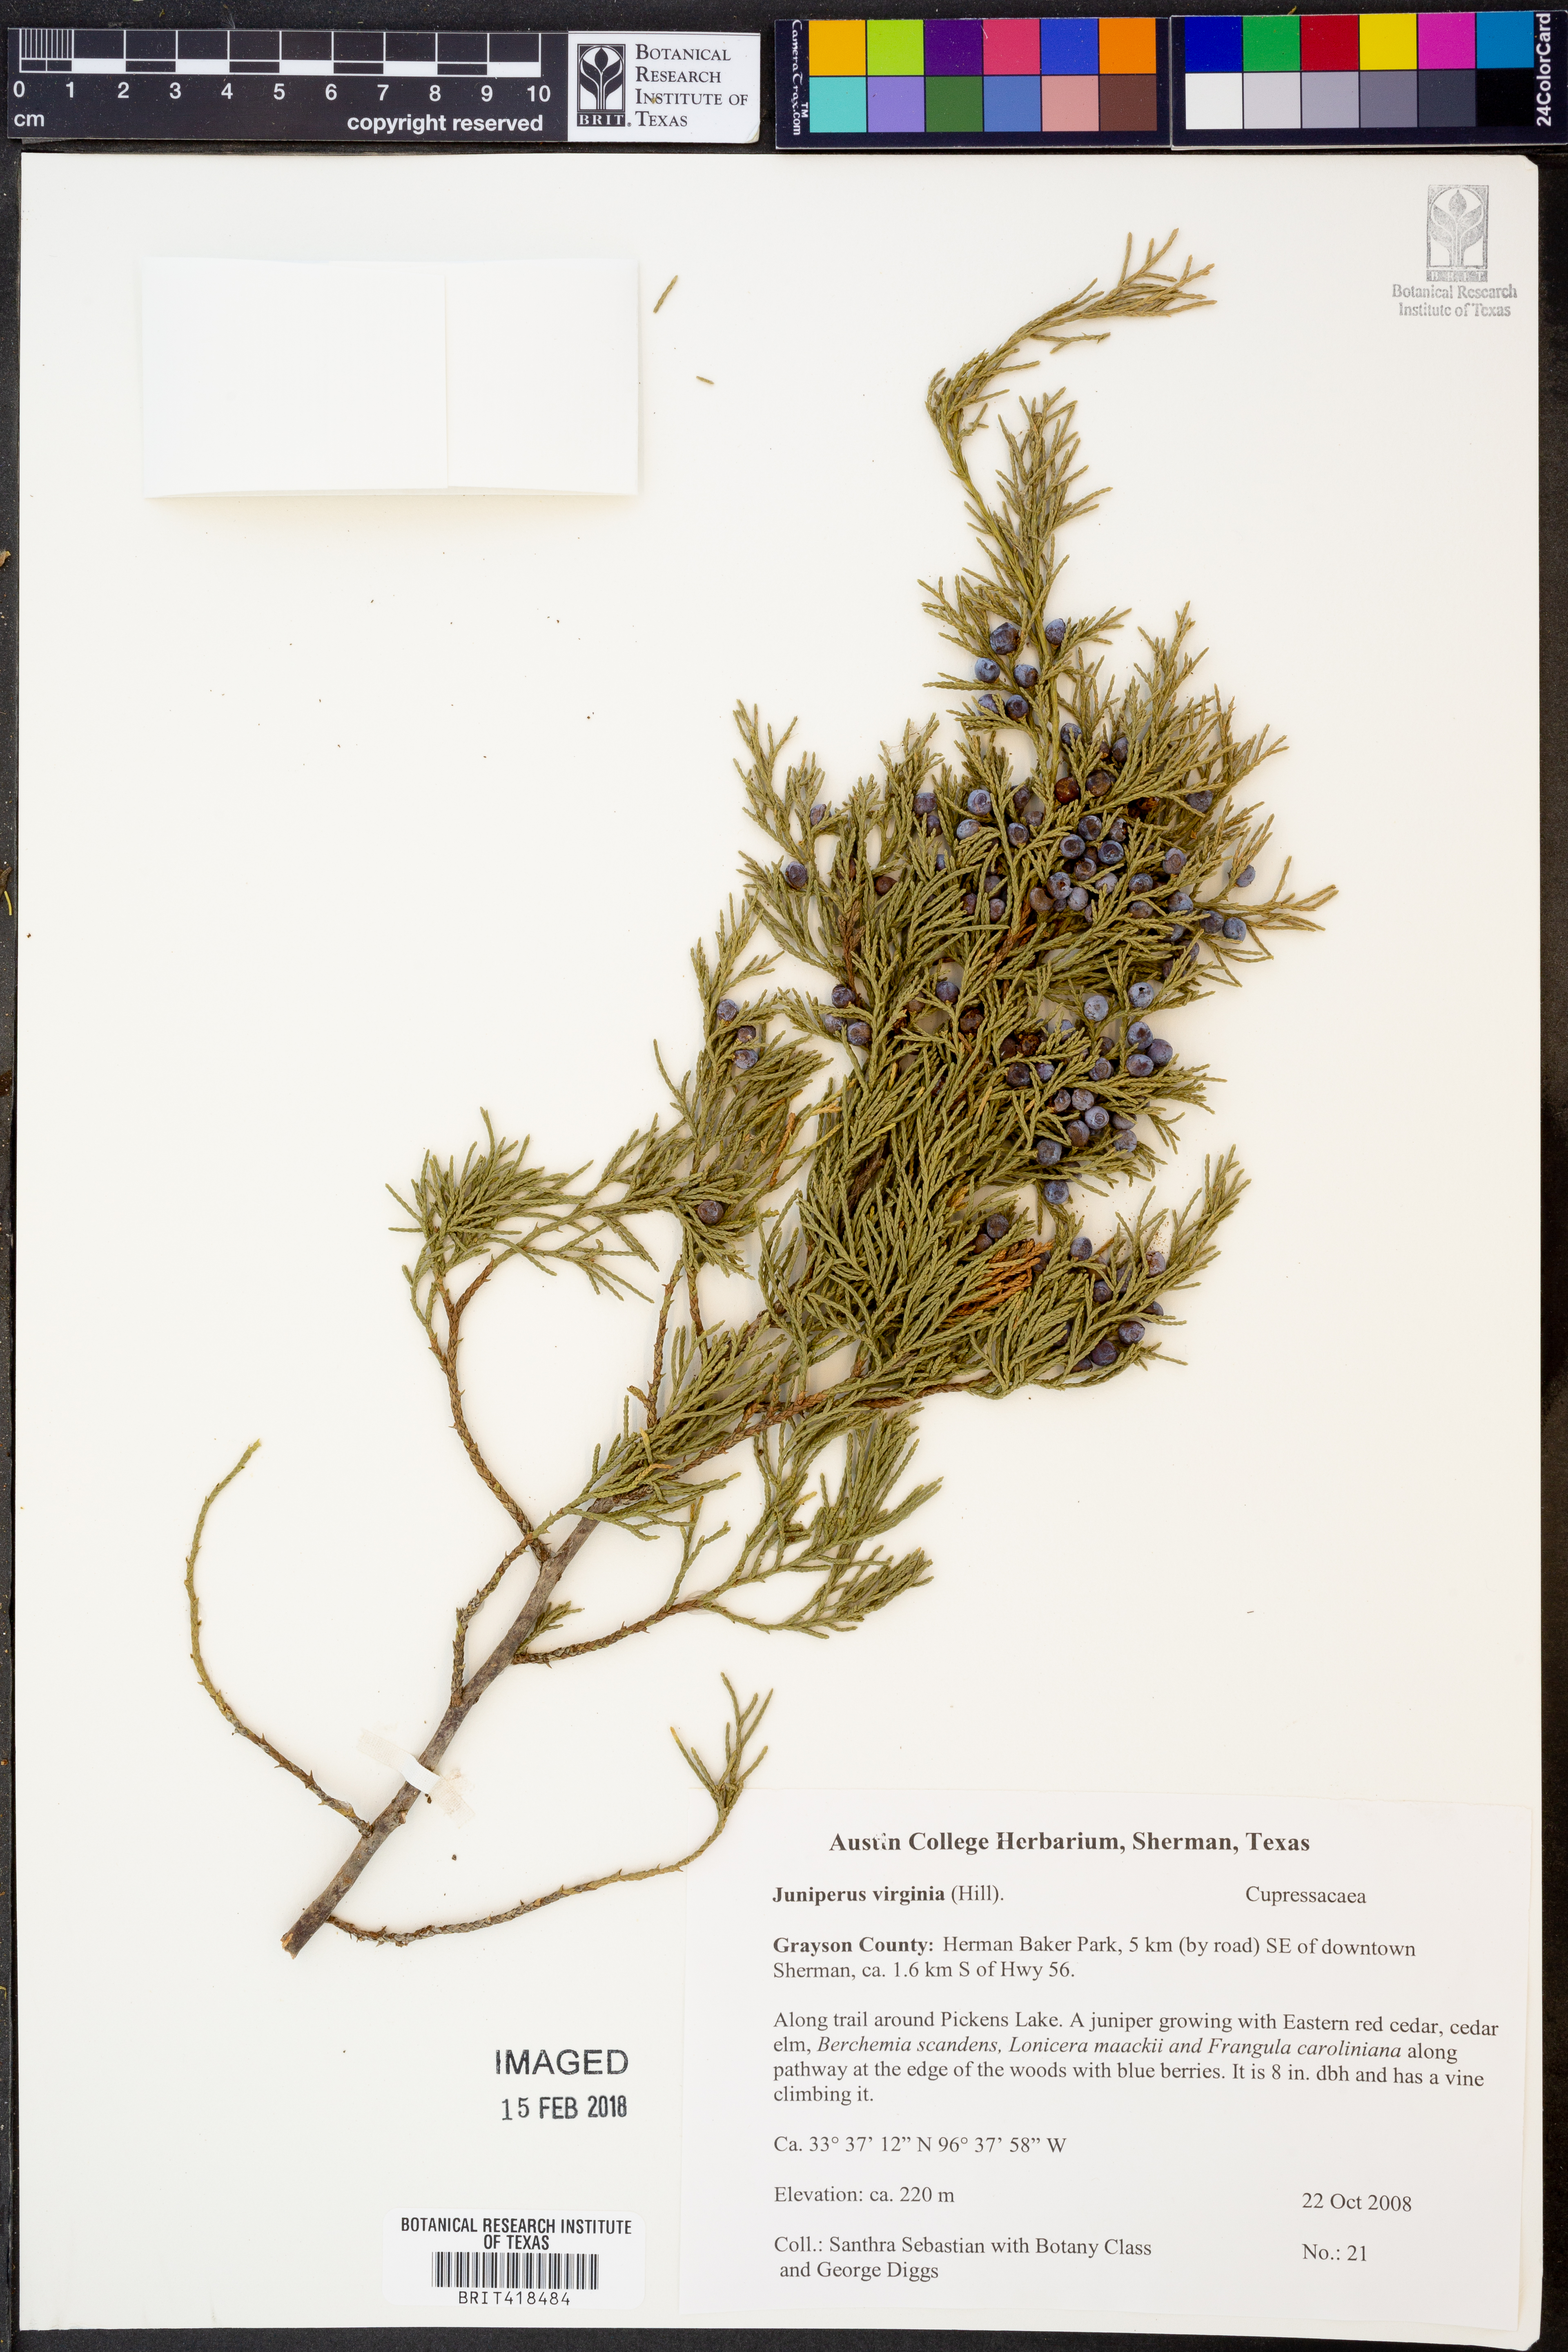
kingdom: Plantae
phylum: Tracheophyta
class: Pinopsida
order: Pinales
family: Cupressaceae
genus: Juniperus
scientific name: Juniperus virginiana
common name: Red juniper
